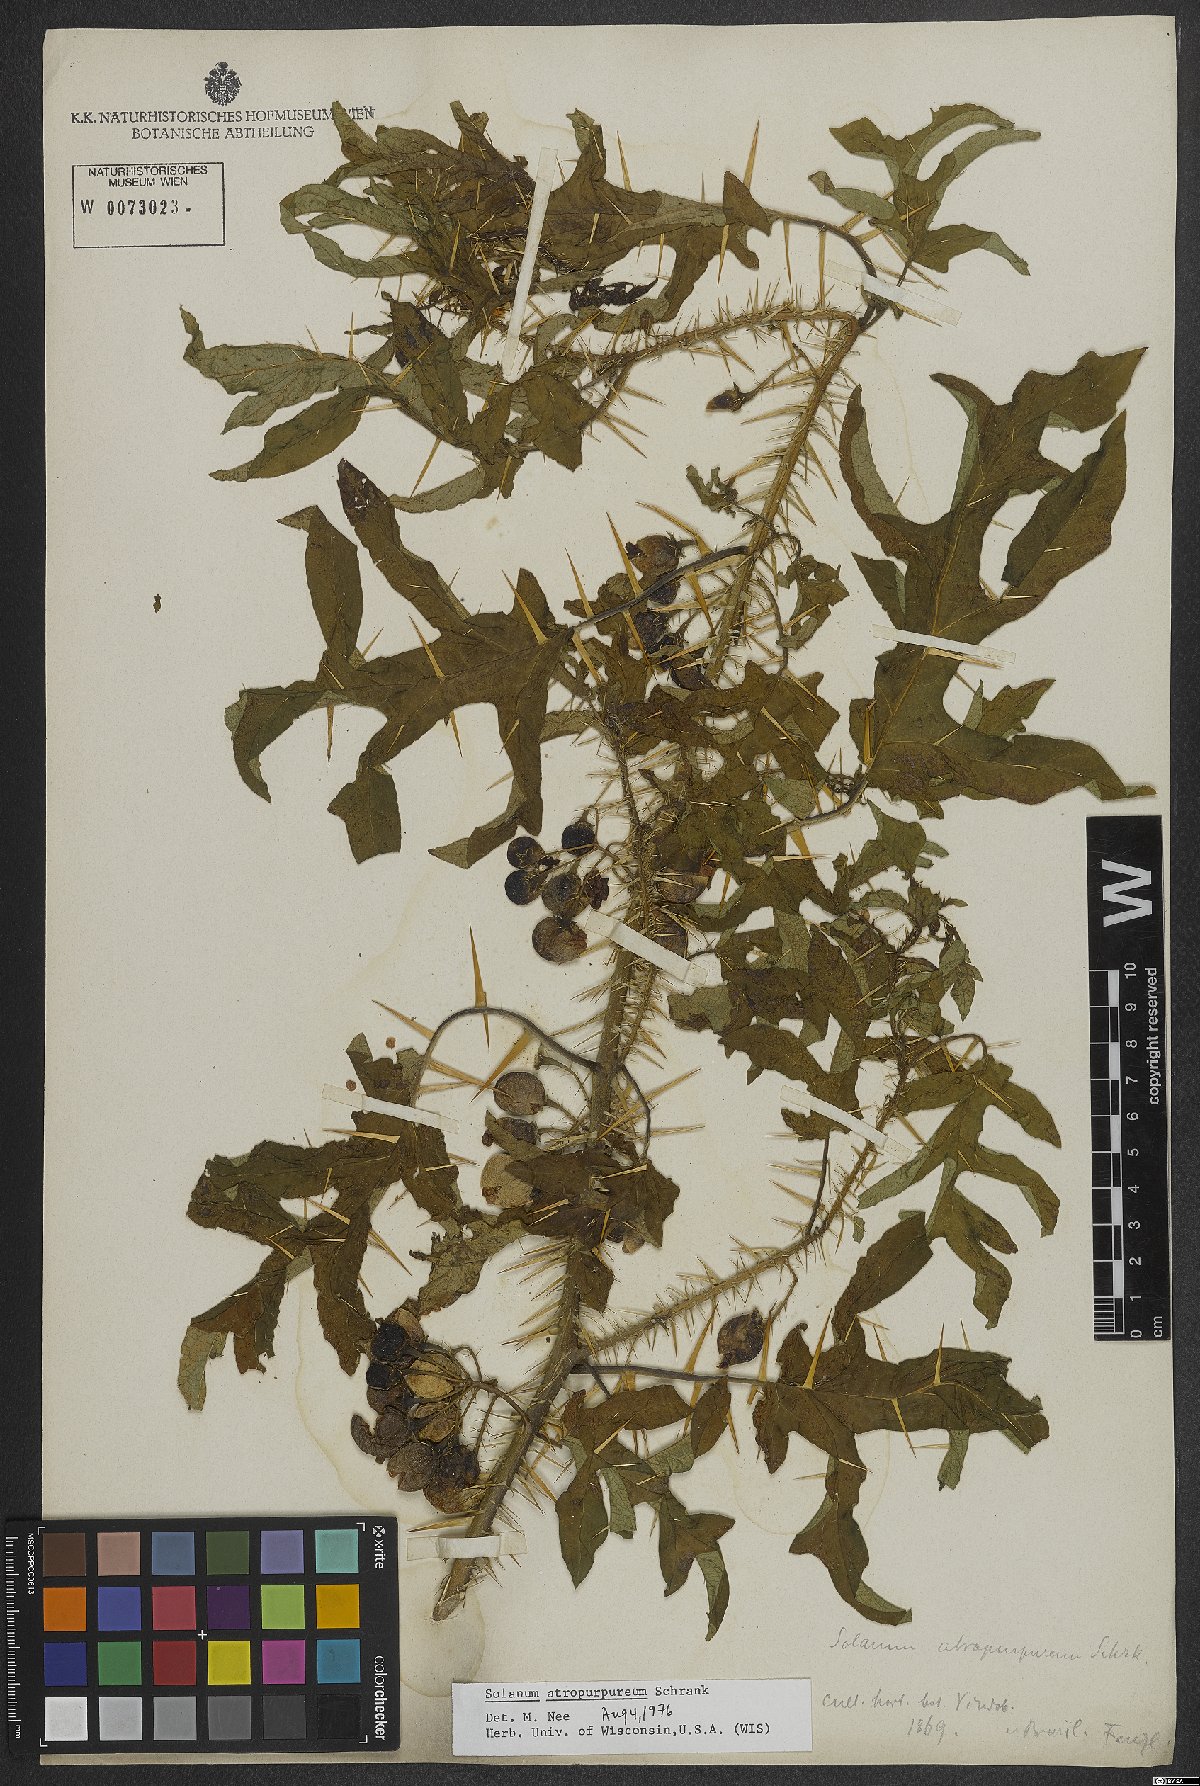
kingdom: Plantae
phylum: Tracheophyta
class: Magnoliopsida
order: Solanales
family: Solanaceae
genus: Solanum
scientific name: Solanum atropurpureum
